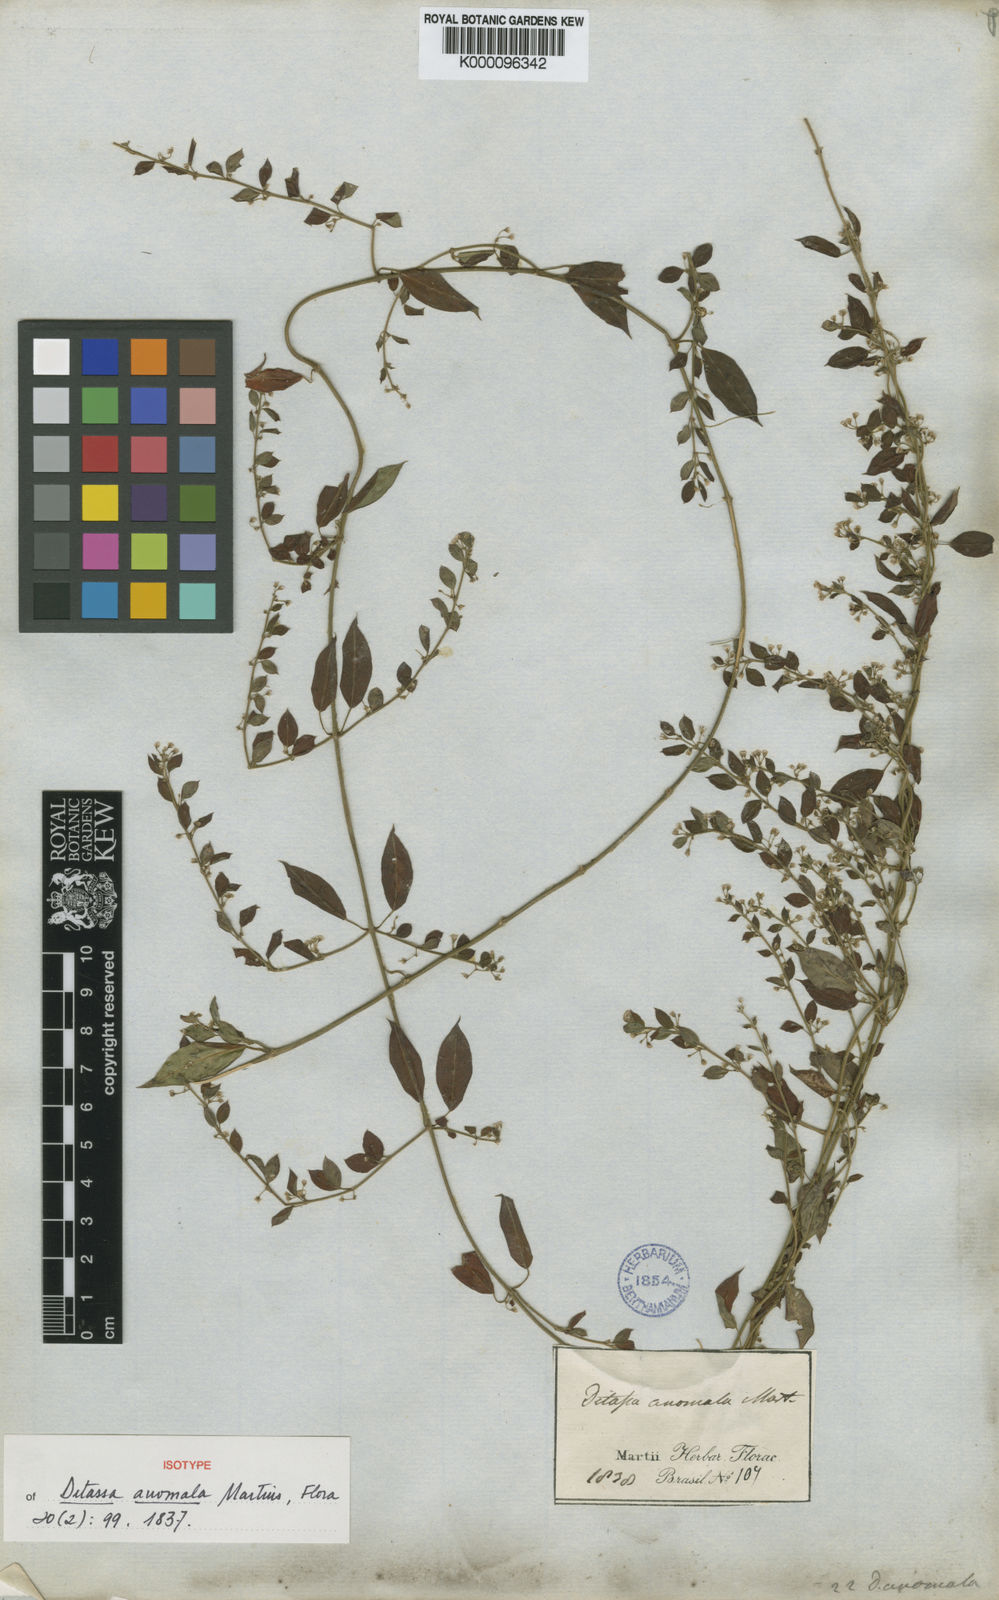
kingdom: Plantae
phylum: Tracheophyta
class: Magnoliopsida
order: Gentianales
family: Apocynaceae
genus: Metastelma
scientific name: Metastelma burchellii
